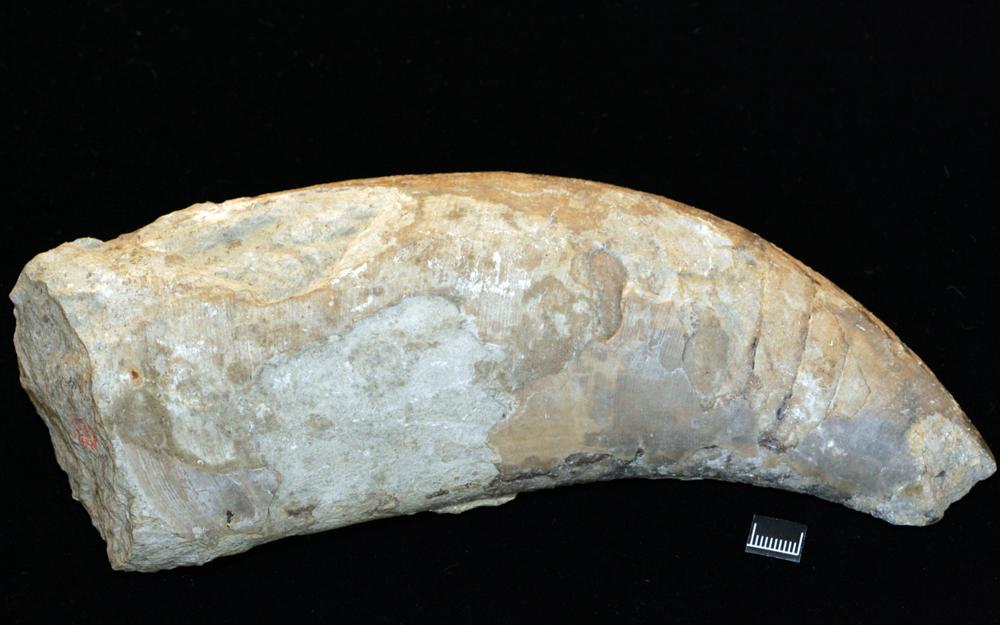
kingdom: Animalia
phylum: Mollusca
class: Cephalopoda
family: Protophragmoceratidae
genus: Protophragmoceras
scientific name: Protophragmoceras
